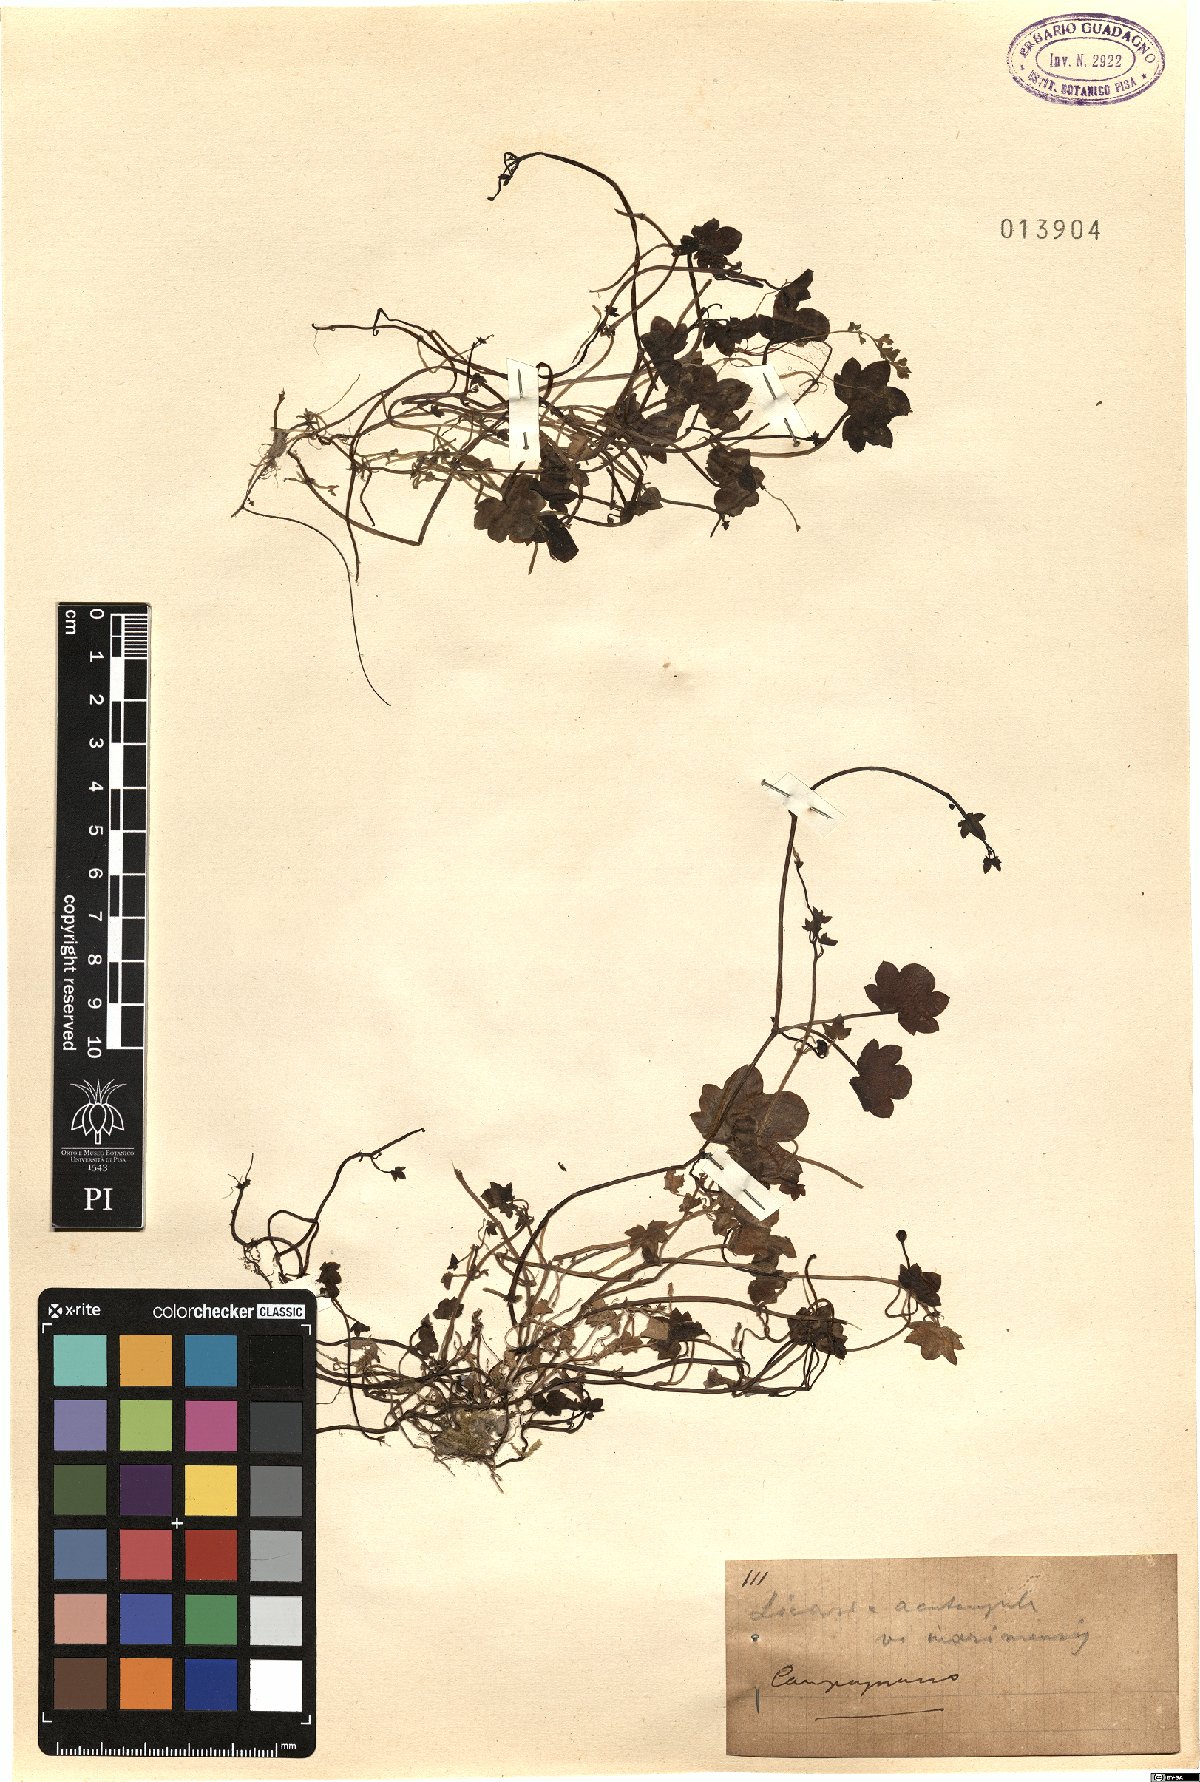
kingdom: Plantae
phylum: Tracheophyta
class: Magnoliopsida
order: Lamiales
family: Plantaginaceae
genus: Cymbalaria
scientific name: Cymbalaria muralis
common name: Ivy-leaved toadflax
